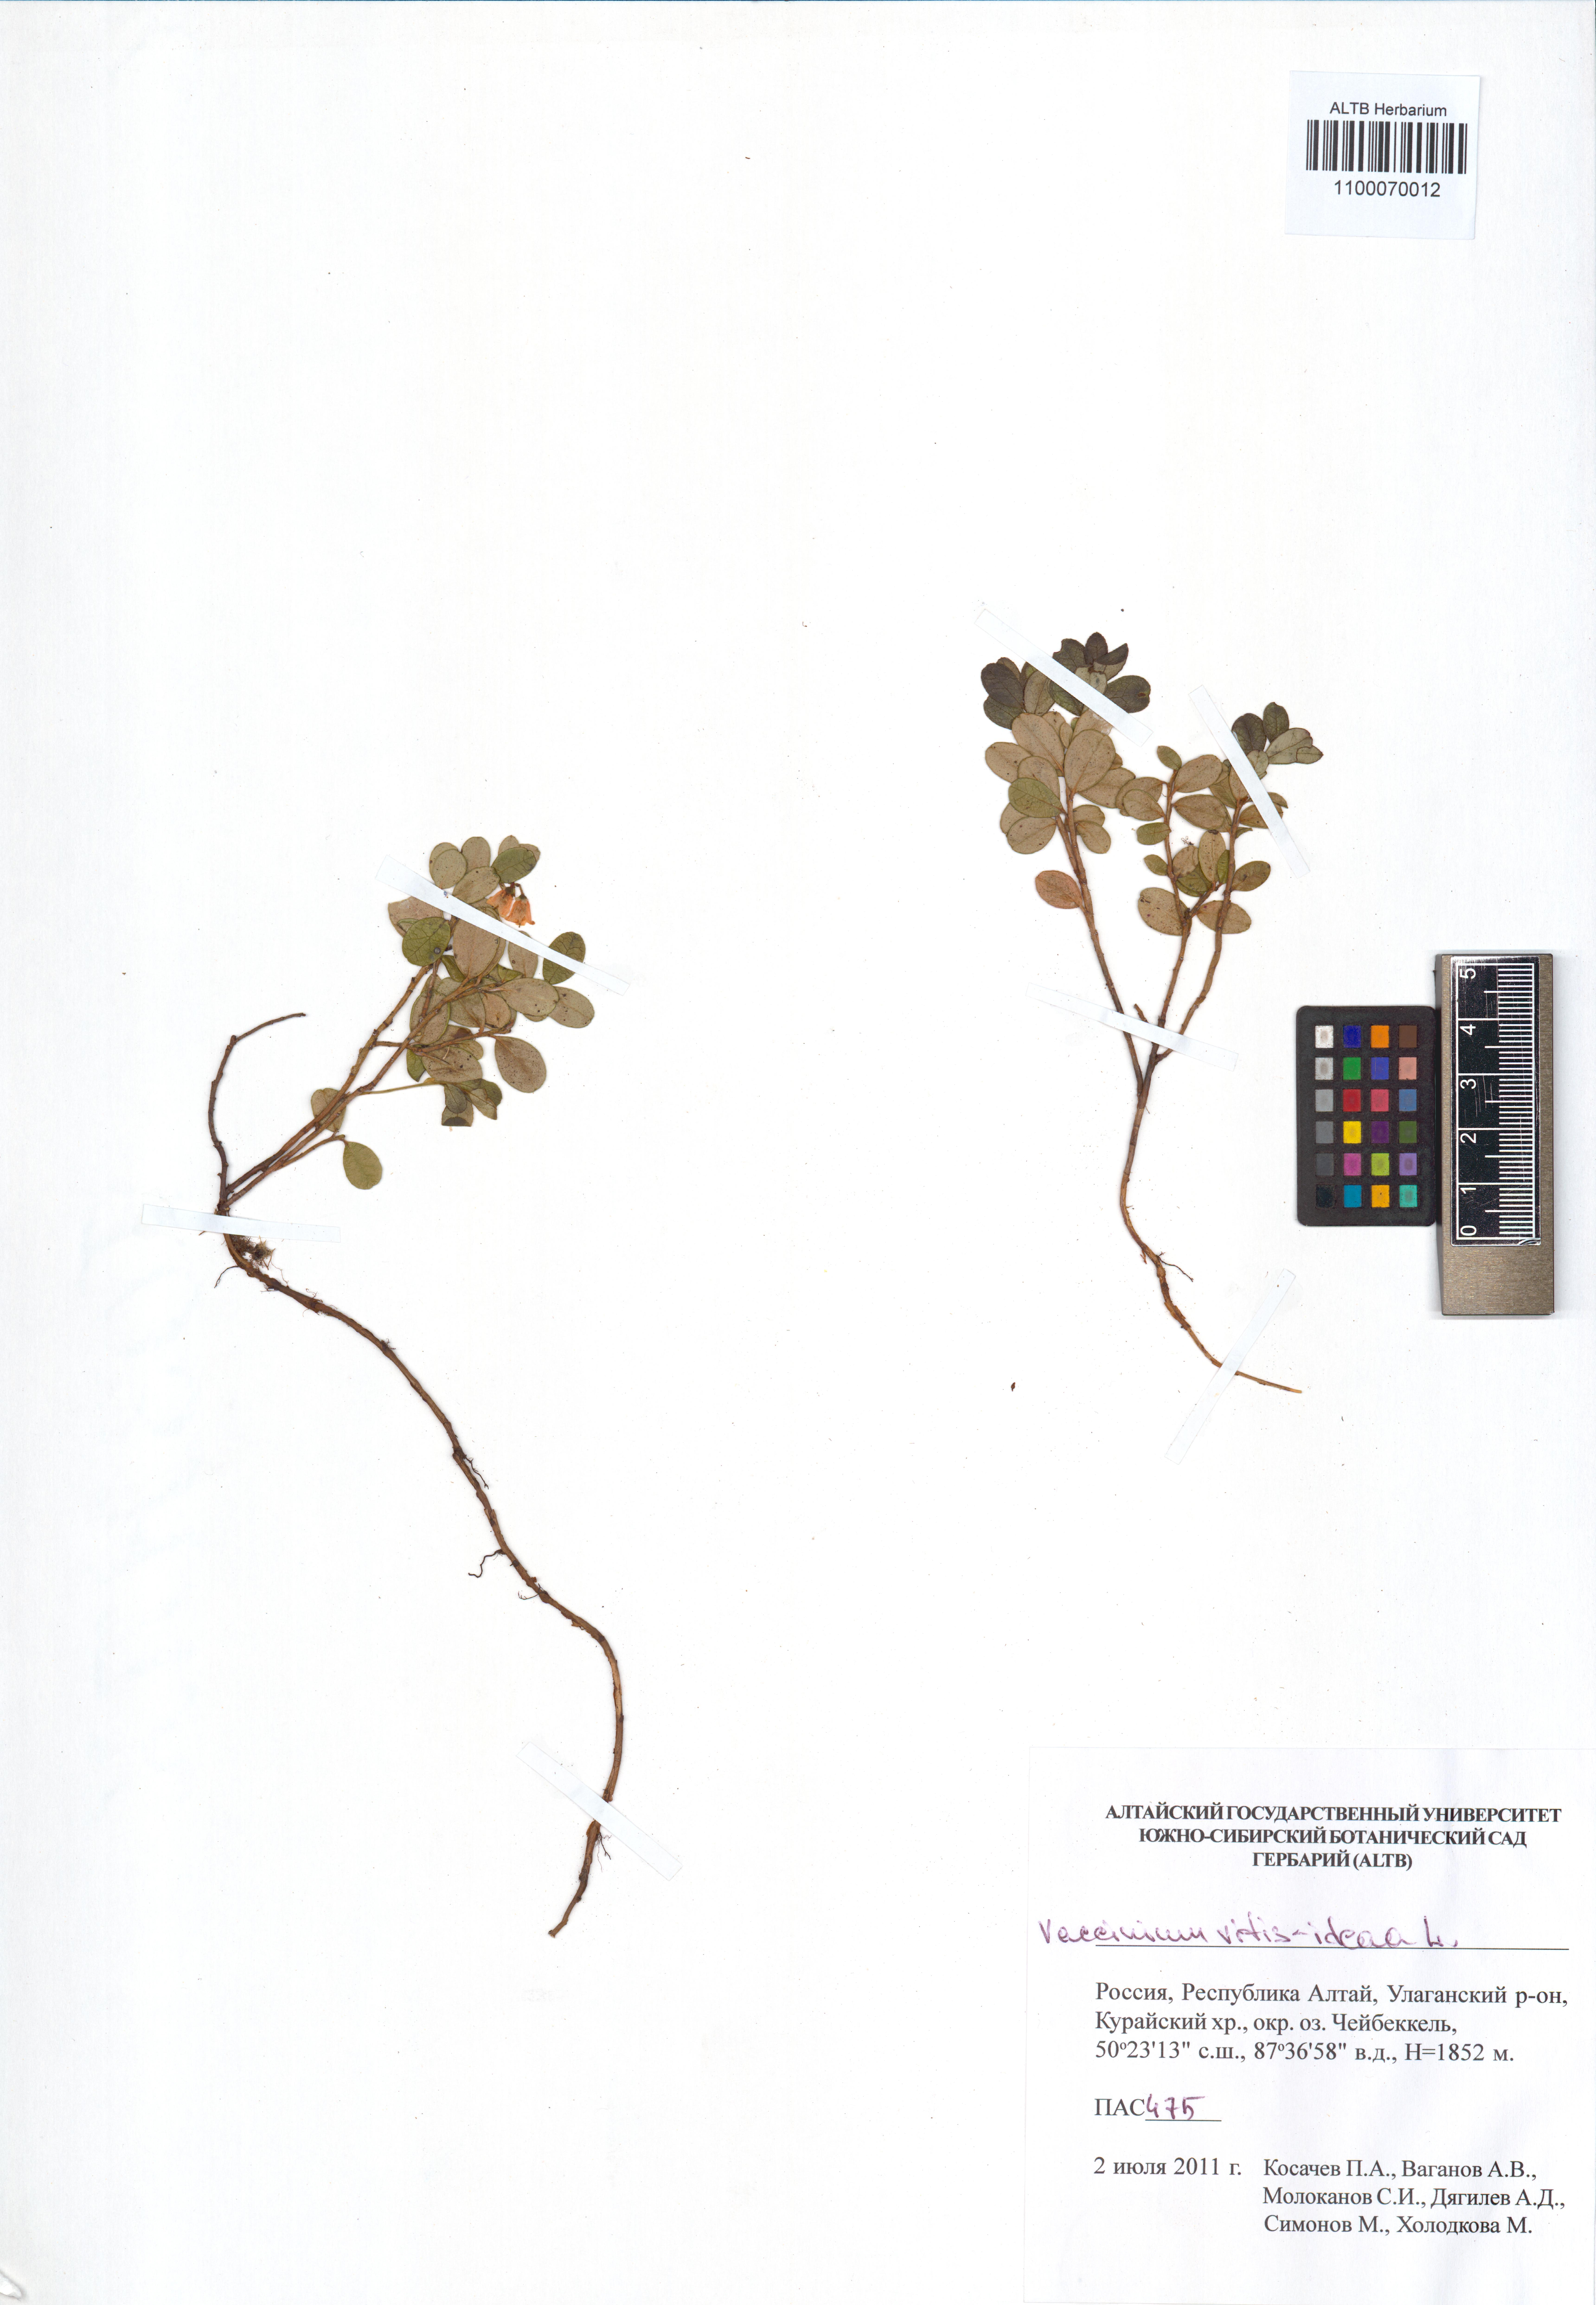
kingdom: Plantae
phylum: Tracheophyta
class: Magnoliopsida
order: Ericales
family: Ericaceae
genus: Vaccinium
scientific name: Vaccinium vitis-idaea
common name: Cowberry
